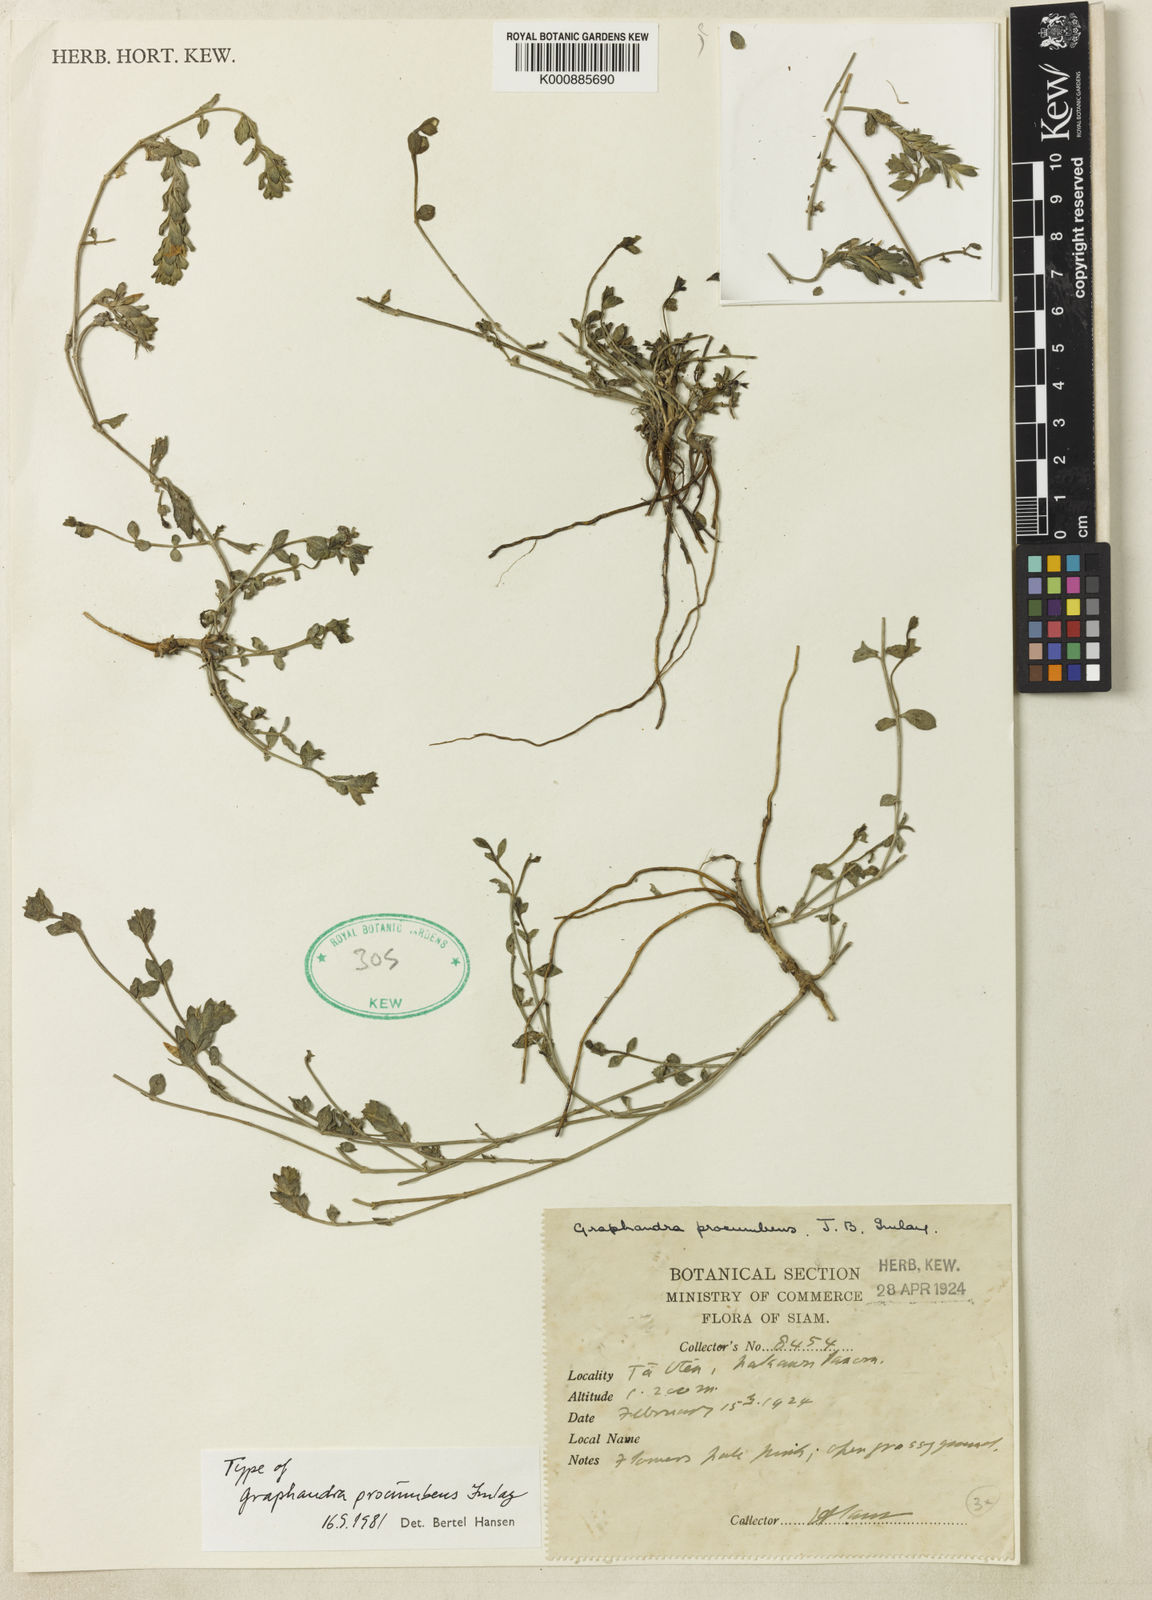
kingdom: Plantae
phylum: Tracheophyta
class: Magnoliopsida
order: Lamiales
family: Acanthaceae
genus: Graphandra
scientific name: Graphandra procumbens
